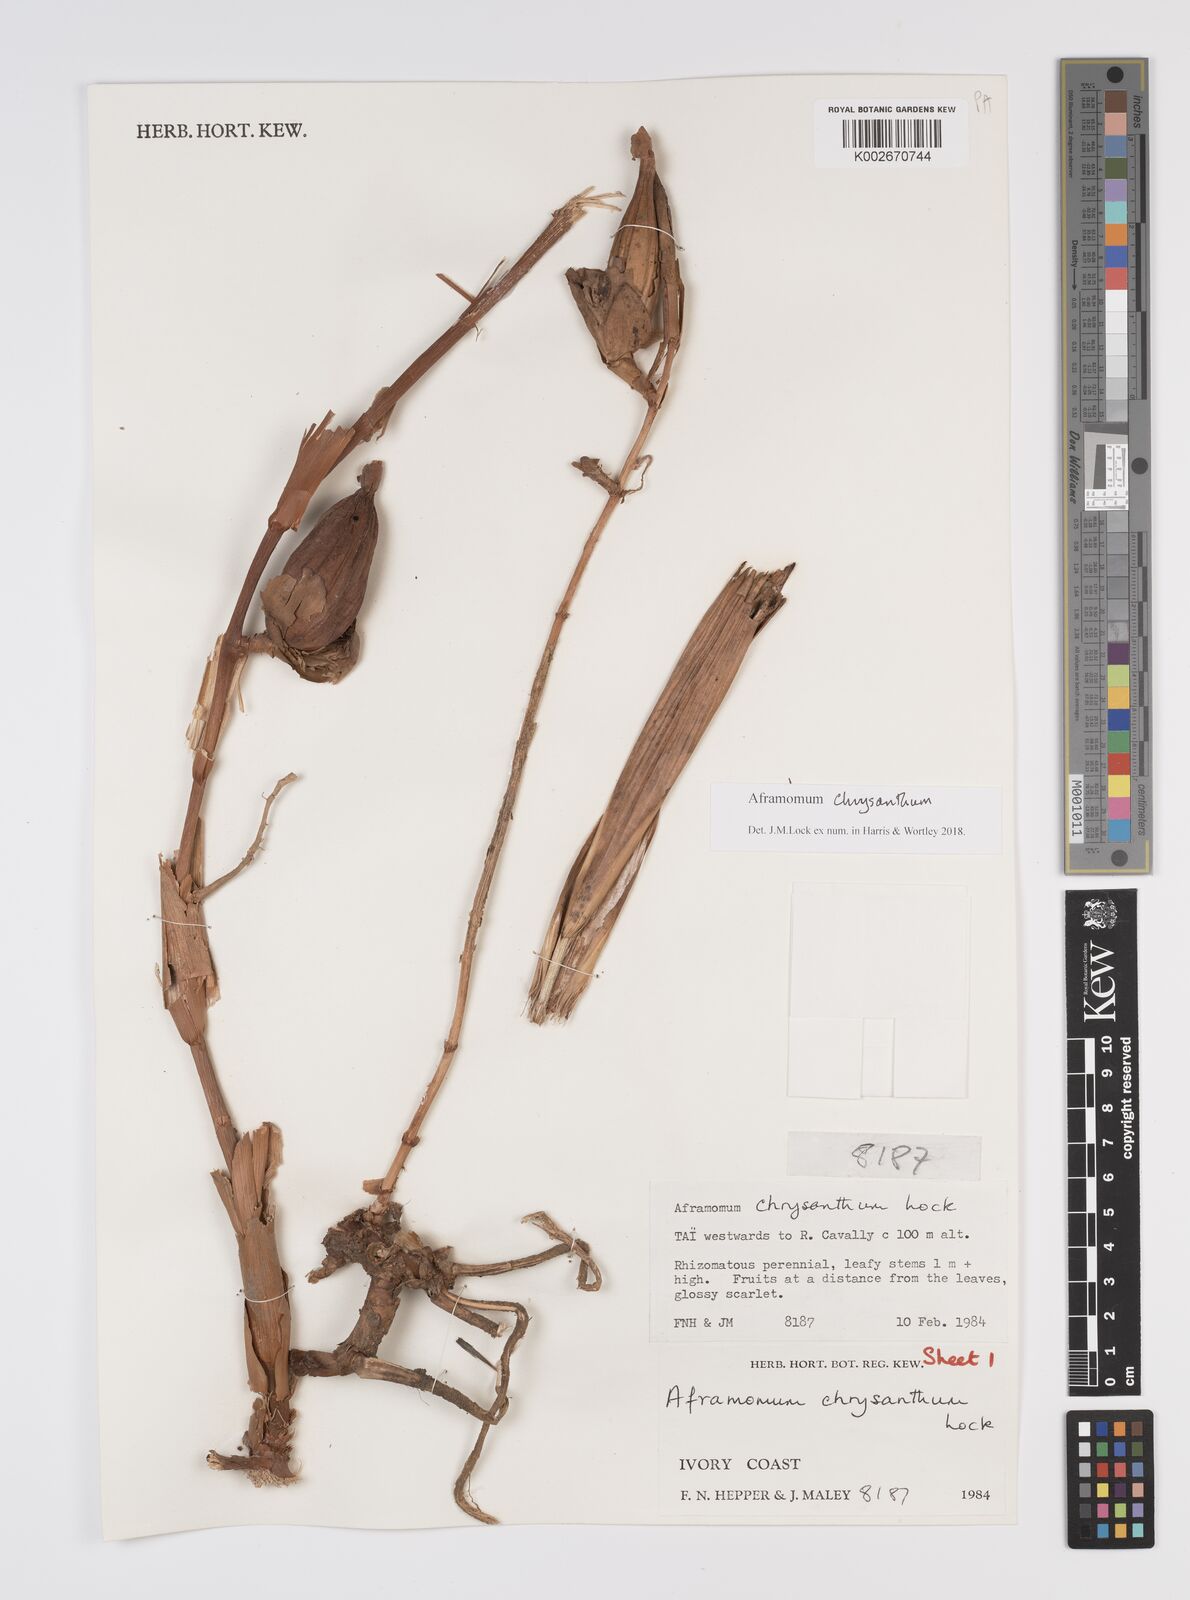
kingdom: Plantae
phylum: Tracheophyta
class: Liliopsida
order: Zingiberales
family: Zingiberaceae
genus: Aframomum
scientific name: Aframomum chrysanthum
